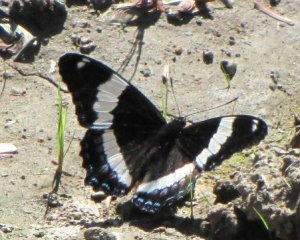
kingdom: Animalia
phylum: Arthropoda
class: Insecta
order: Lepidoptera
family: Nymphalidae
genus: Limenitis
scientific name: Limenitis arthemis
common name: Red-spotted Admiral
